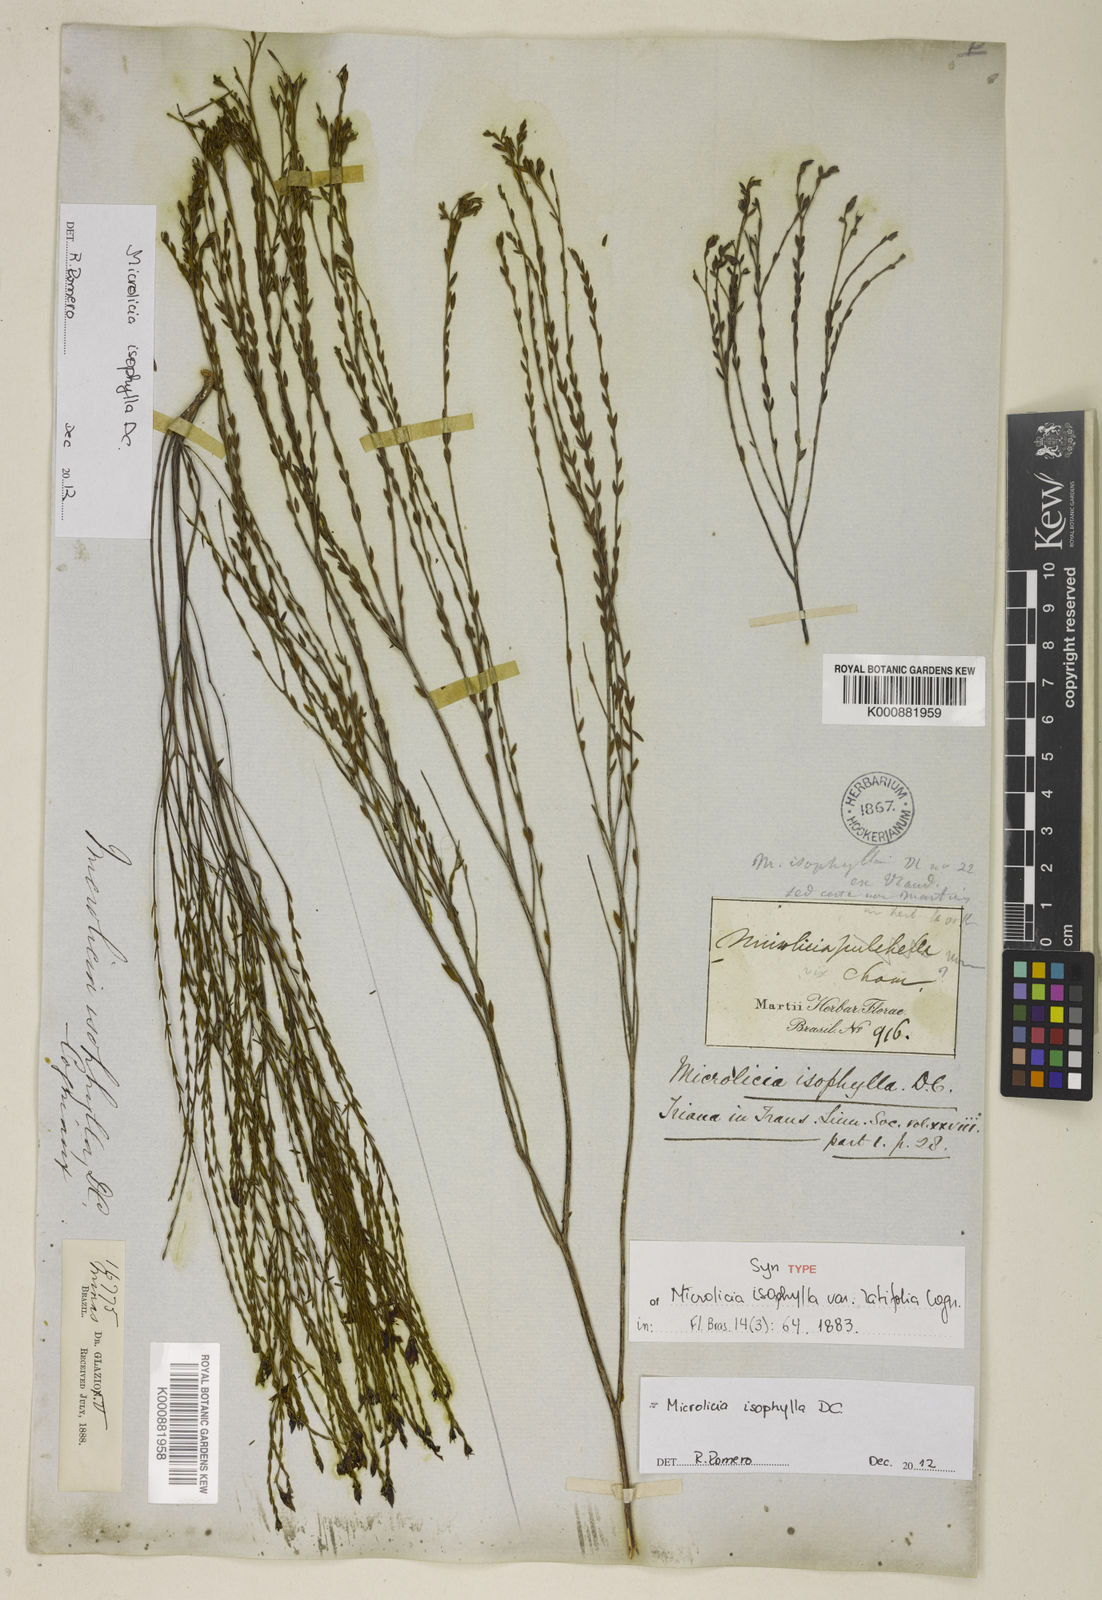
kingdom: Plantae
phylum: Tracheophyta
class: Magnoliopsida
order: Myrtales
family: Melastomataceae
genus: Microlicia
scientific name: Microlicia isophylla
